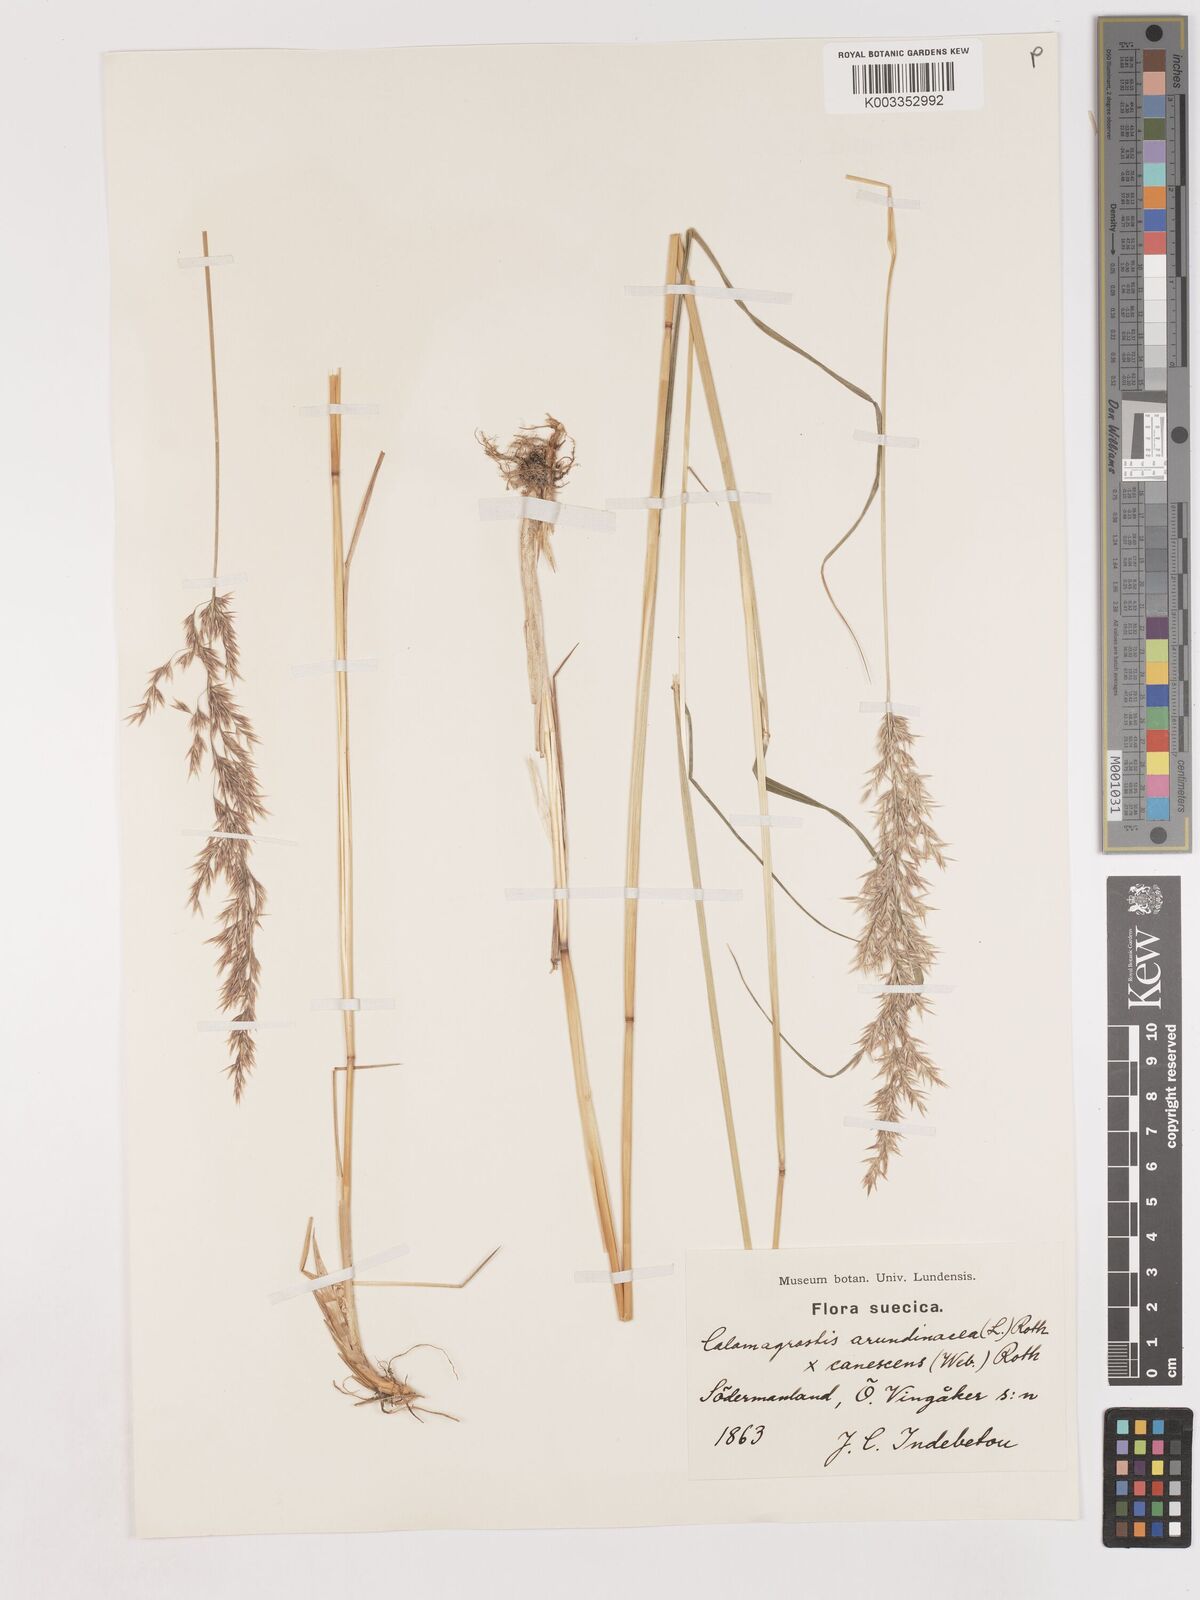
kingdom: Plantae
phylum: Tracheophyta
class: Liliopsida
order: Poales
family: Poaceae
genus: Calamagrostis
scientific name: Calamagrostis canescens
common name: Purple small-reed
